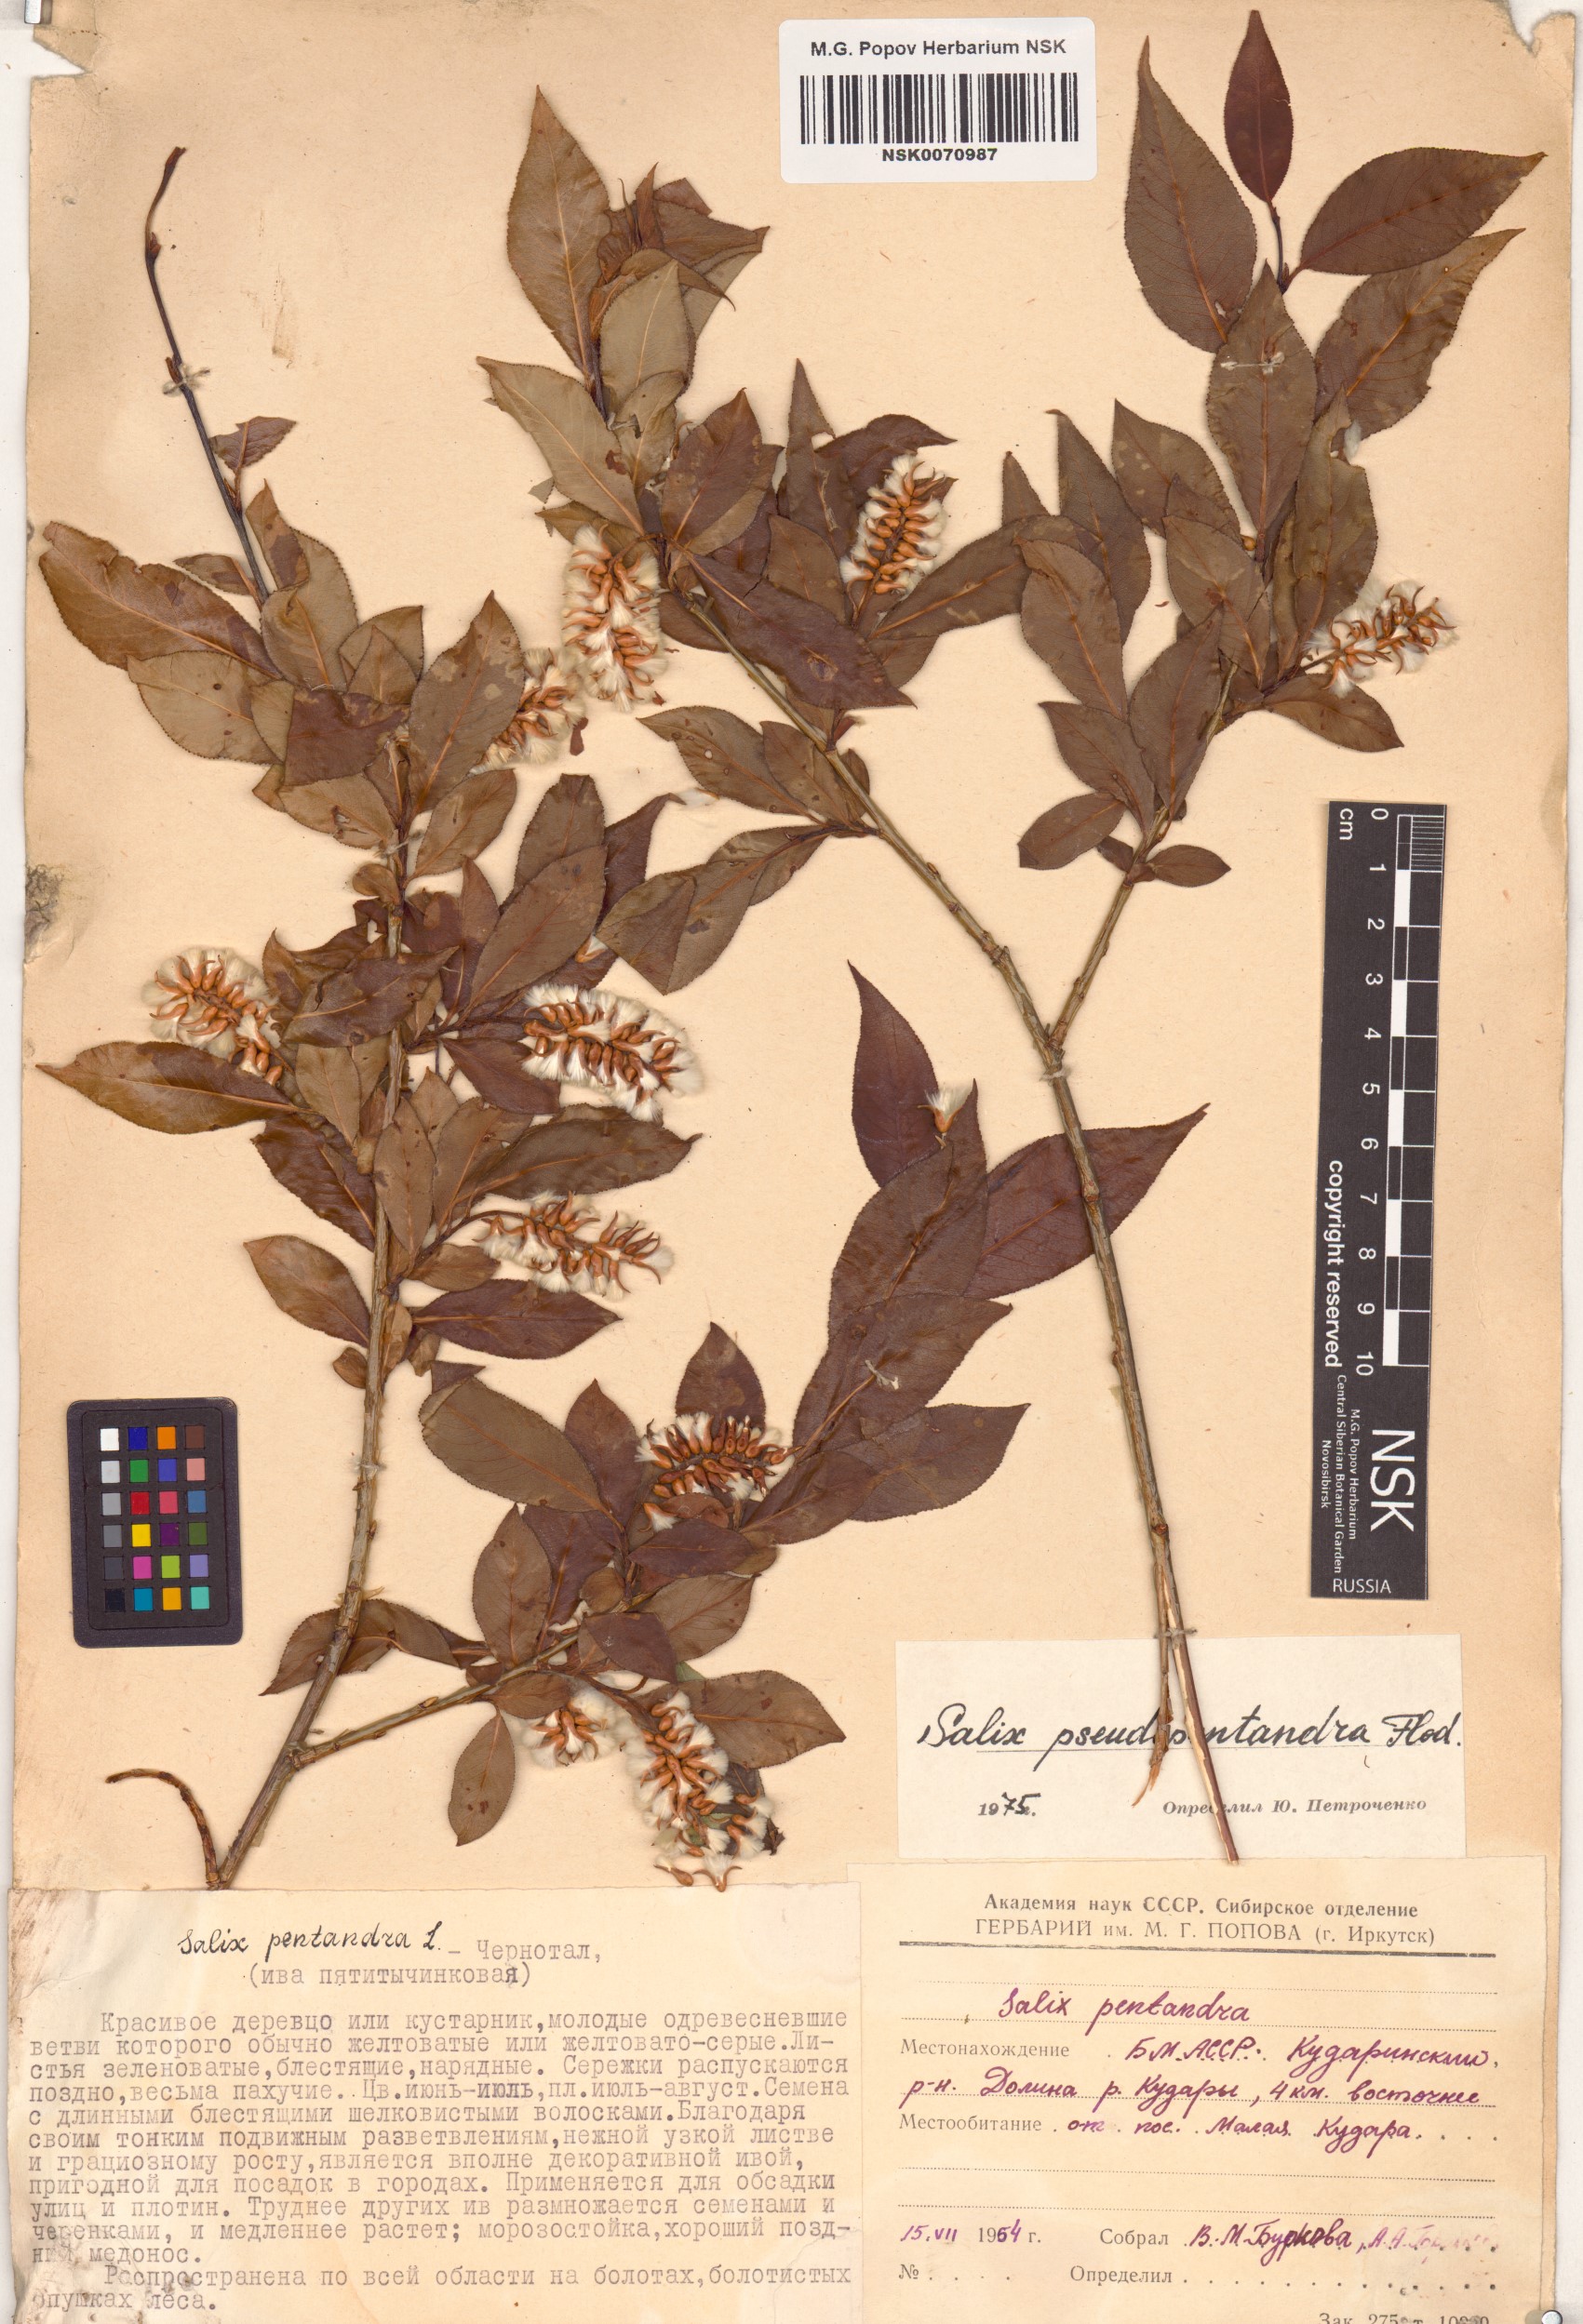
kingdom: Plantae
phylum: Tracheophyta
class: Magnoliopsida
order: Malpighiales
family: Salicaceae
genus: Salix
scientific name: Salix pseudopentandra
